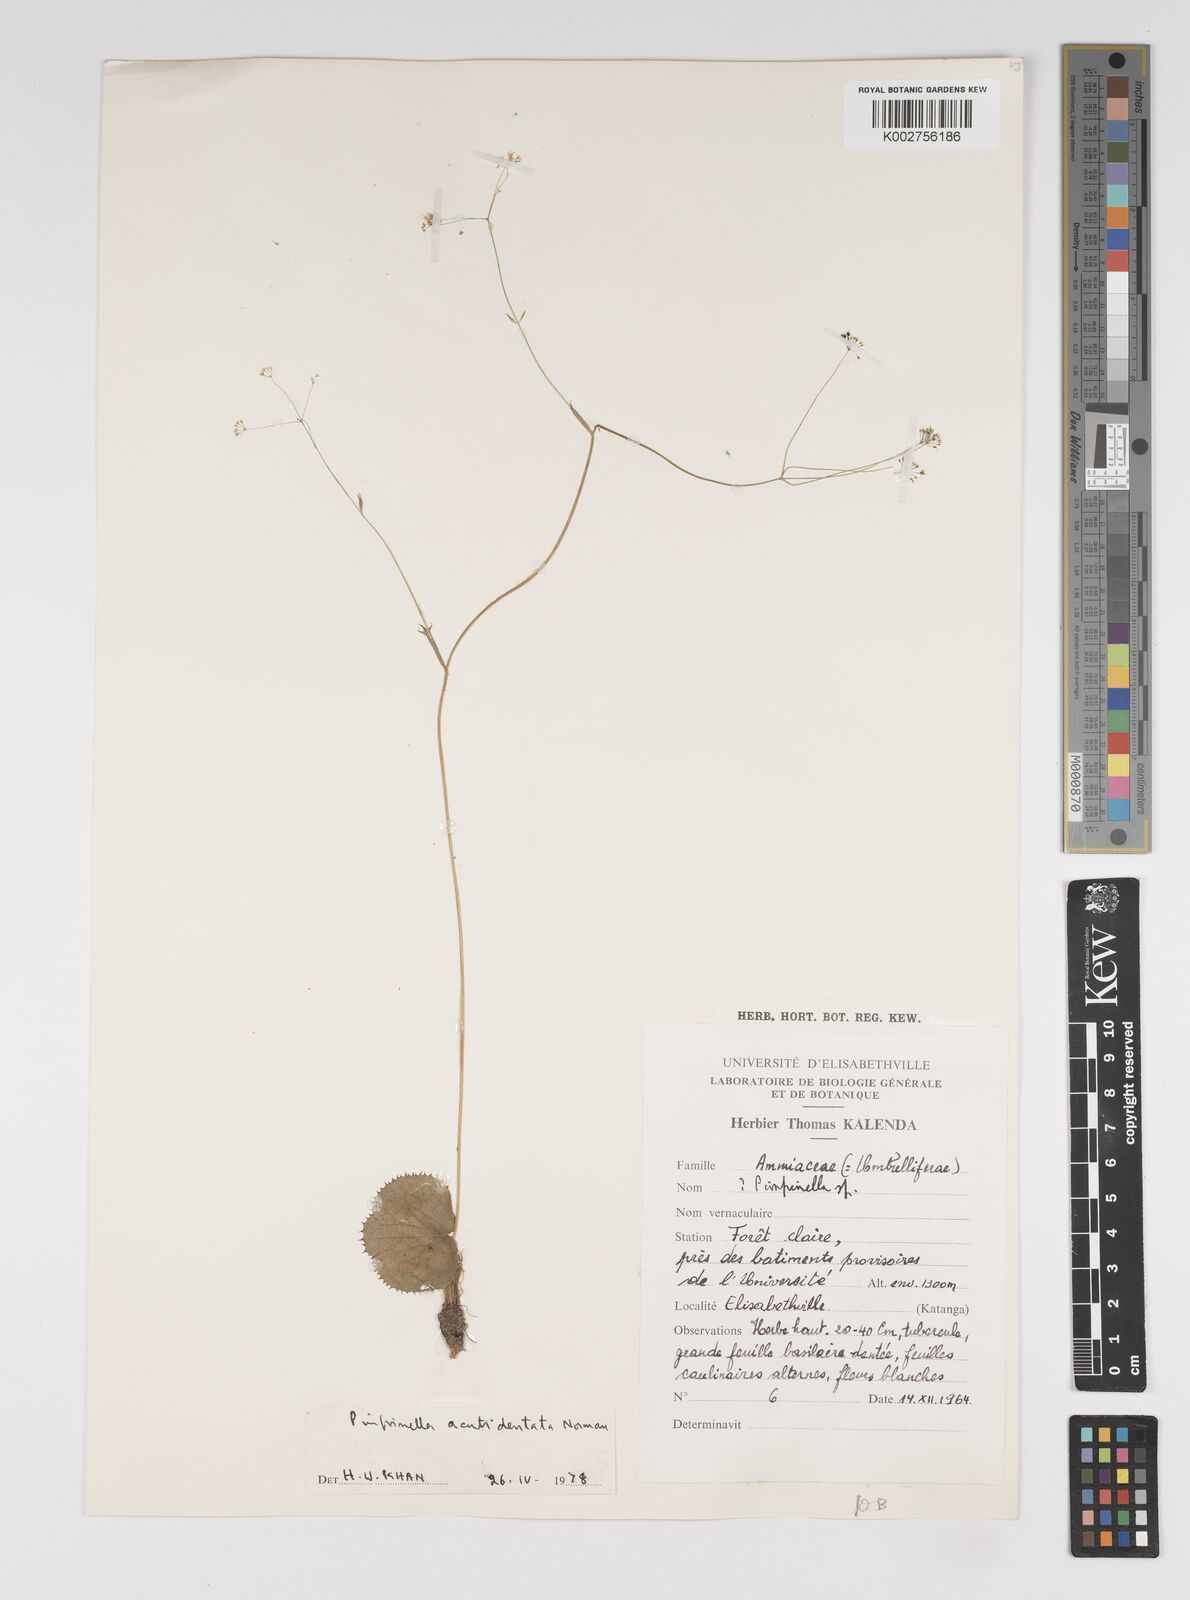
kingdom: Plantae
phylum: Tracheophyta
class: Magnoliopsida
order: Apiales
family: Apiaceae
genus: Pimpinella
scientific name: Pimpinella acutidentata
